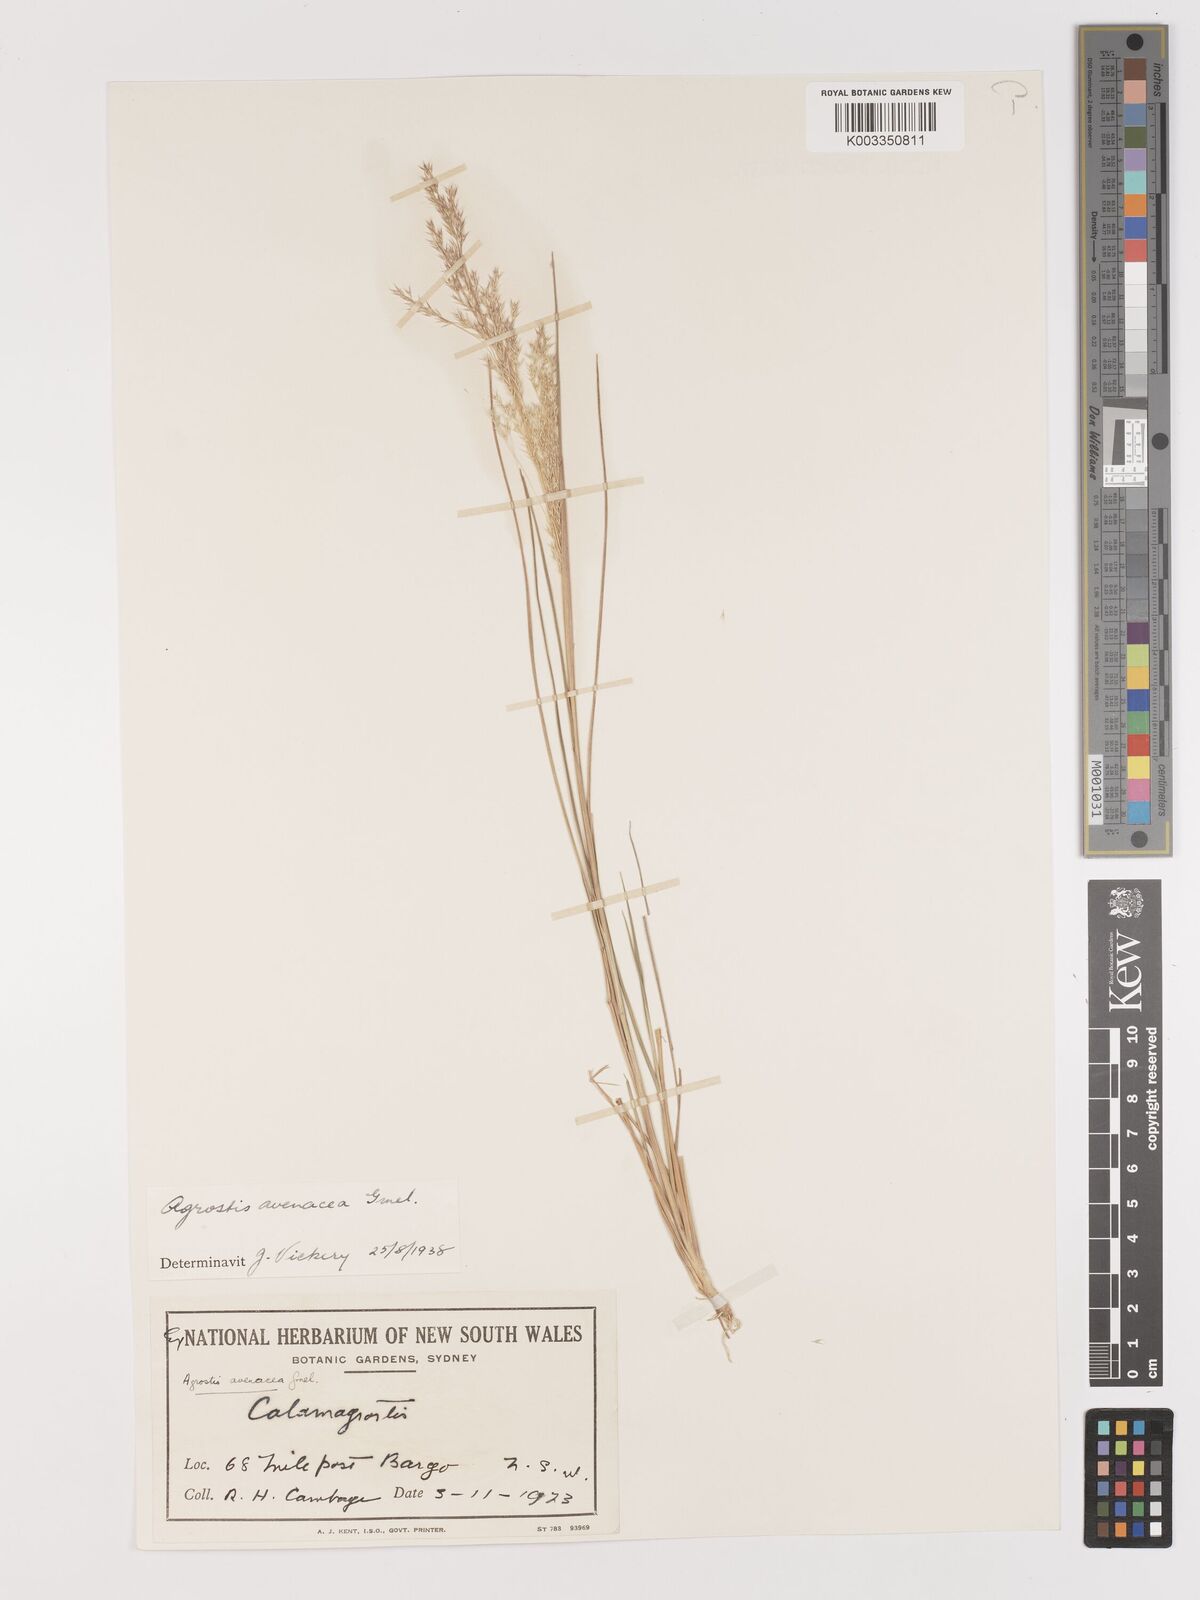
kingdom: Plantae
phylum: Tracheophyta
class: Liliopsida
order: Poales
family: Poaceae
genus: Lachnagrostis
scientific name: Lachnagrostis filiformis
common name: Bentgrass
